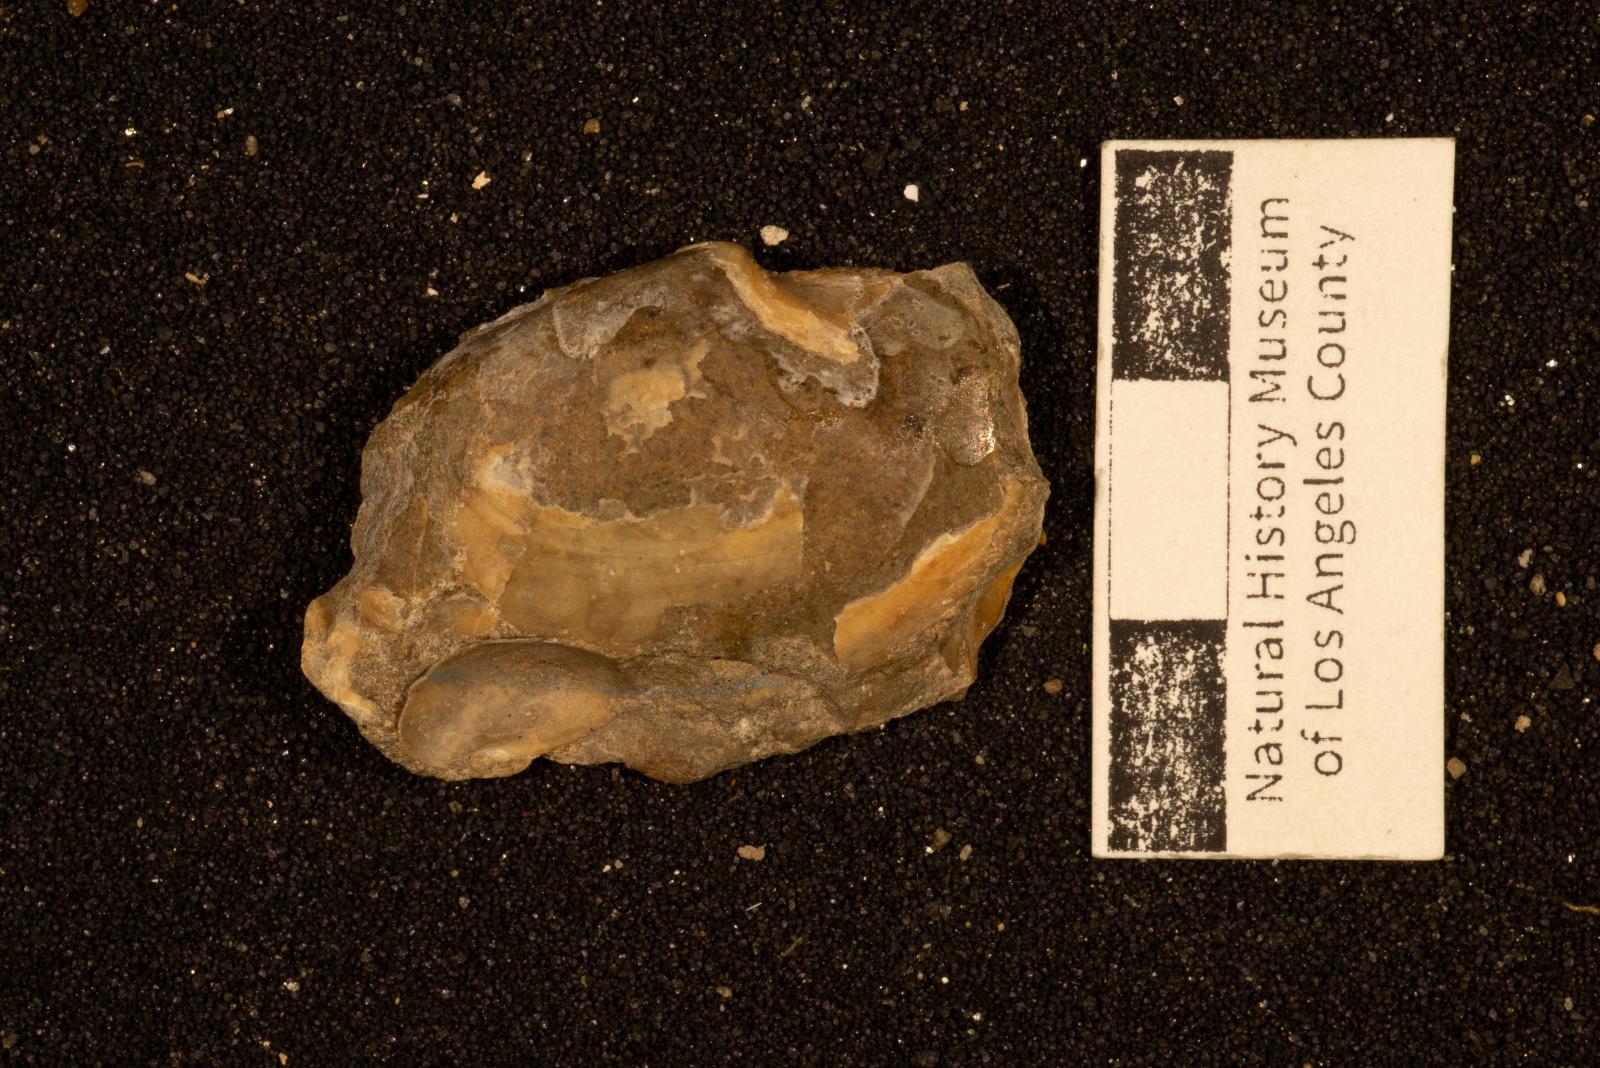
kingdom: Animalia
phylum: Mollusca
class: Bivalvia
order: Cardiida
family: Tancrediidae
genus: Meekia
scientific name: Meekia navis
